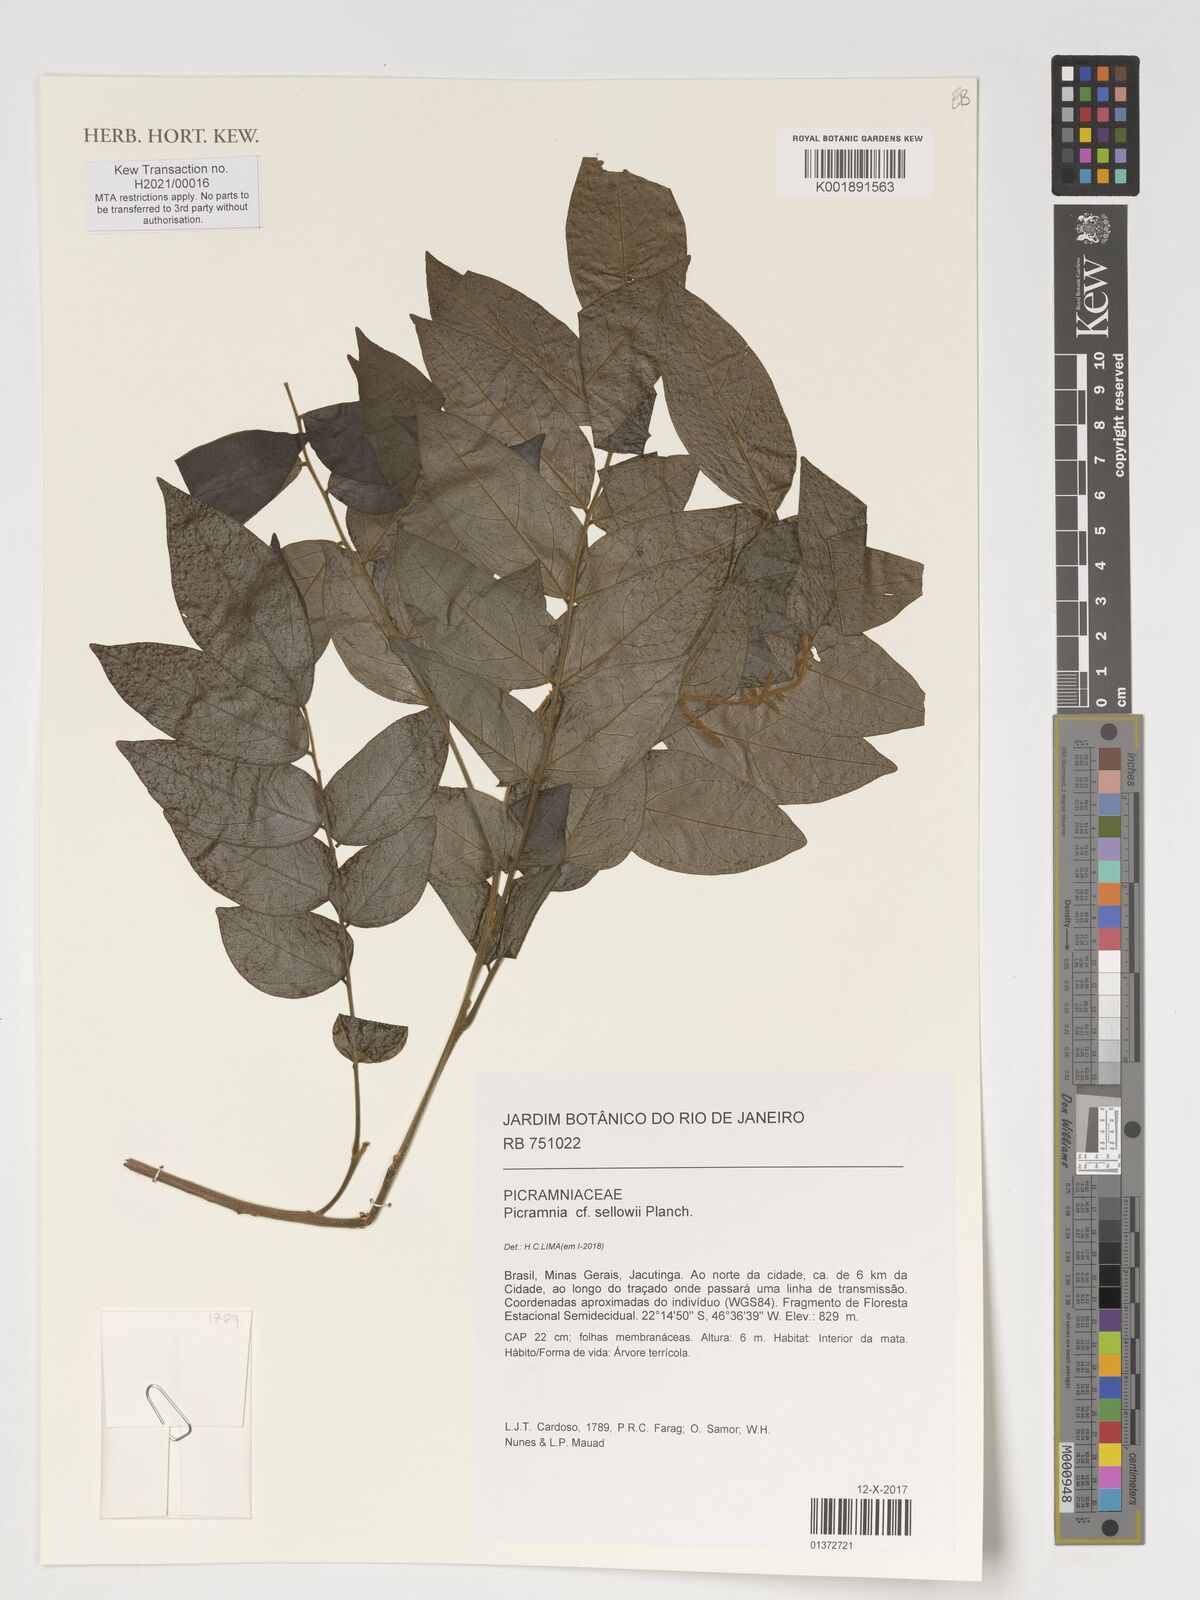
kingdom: Plantae
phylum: Tracheophyta
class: Magnoliopsida
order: Picramniales
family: Picramniaceae
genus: Picramnia
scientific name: Picramnia sellowii
